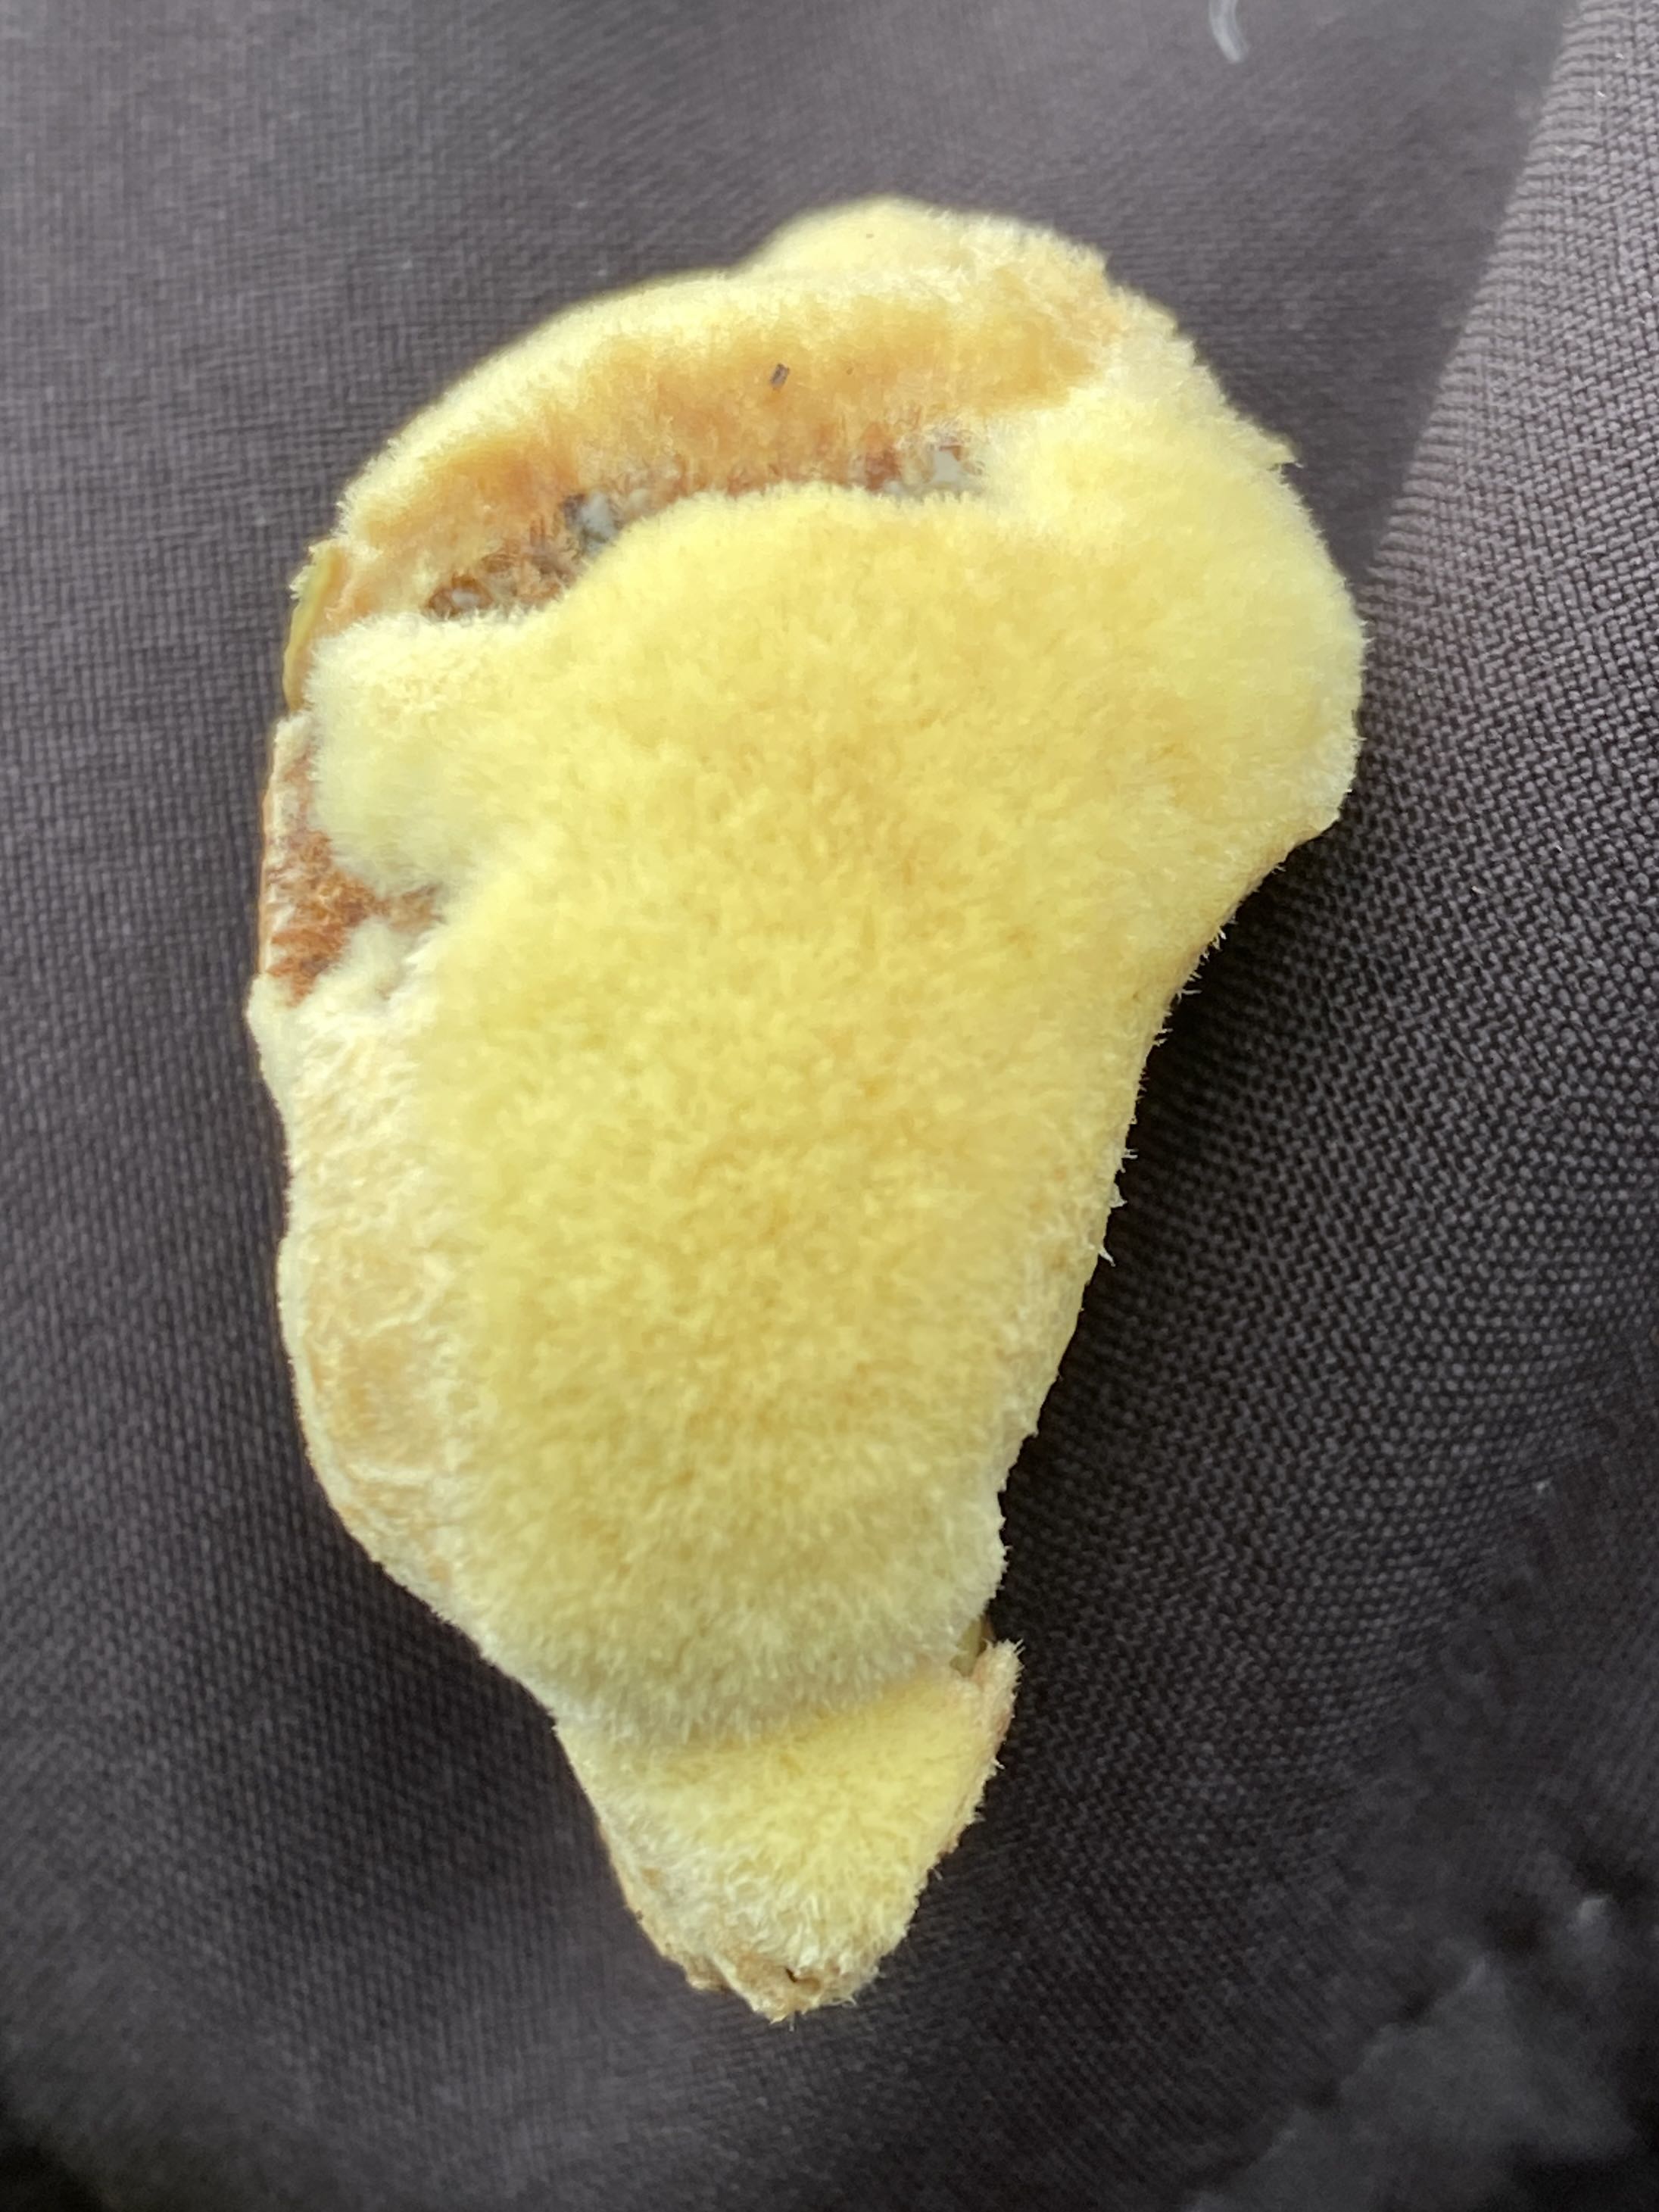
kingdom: Fungi
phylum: Basidiomycota
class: Agaricomycetes
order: Polyporales
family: Laetiporaceae
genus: Phaeolus
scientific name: Phaeolus schweinitzii
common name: brunporesvamp
